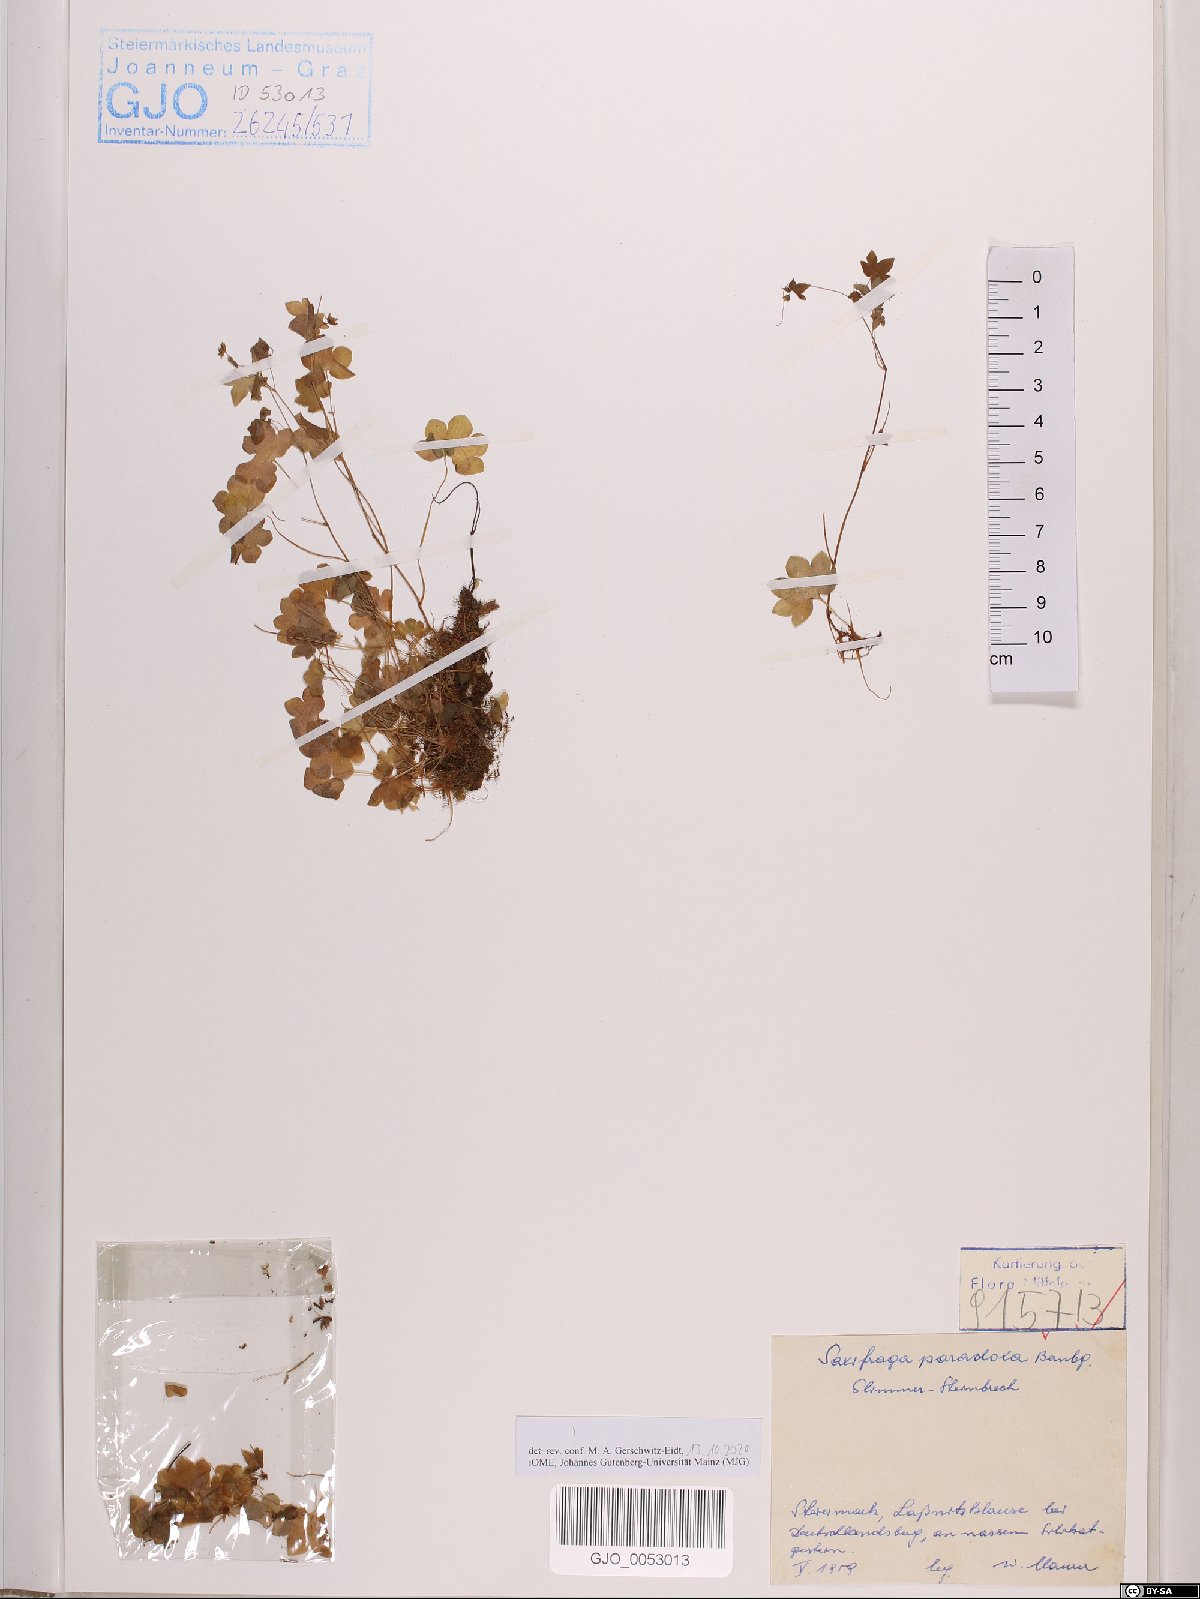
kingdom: Plantae
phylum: Tracheophyta
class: Magnoliopsida
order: Saxifragales
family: Saxifragaceae
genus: Saxifraga
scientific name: Saxifraga paradoxa
